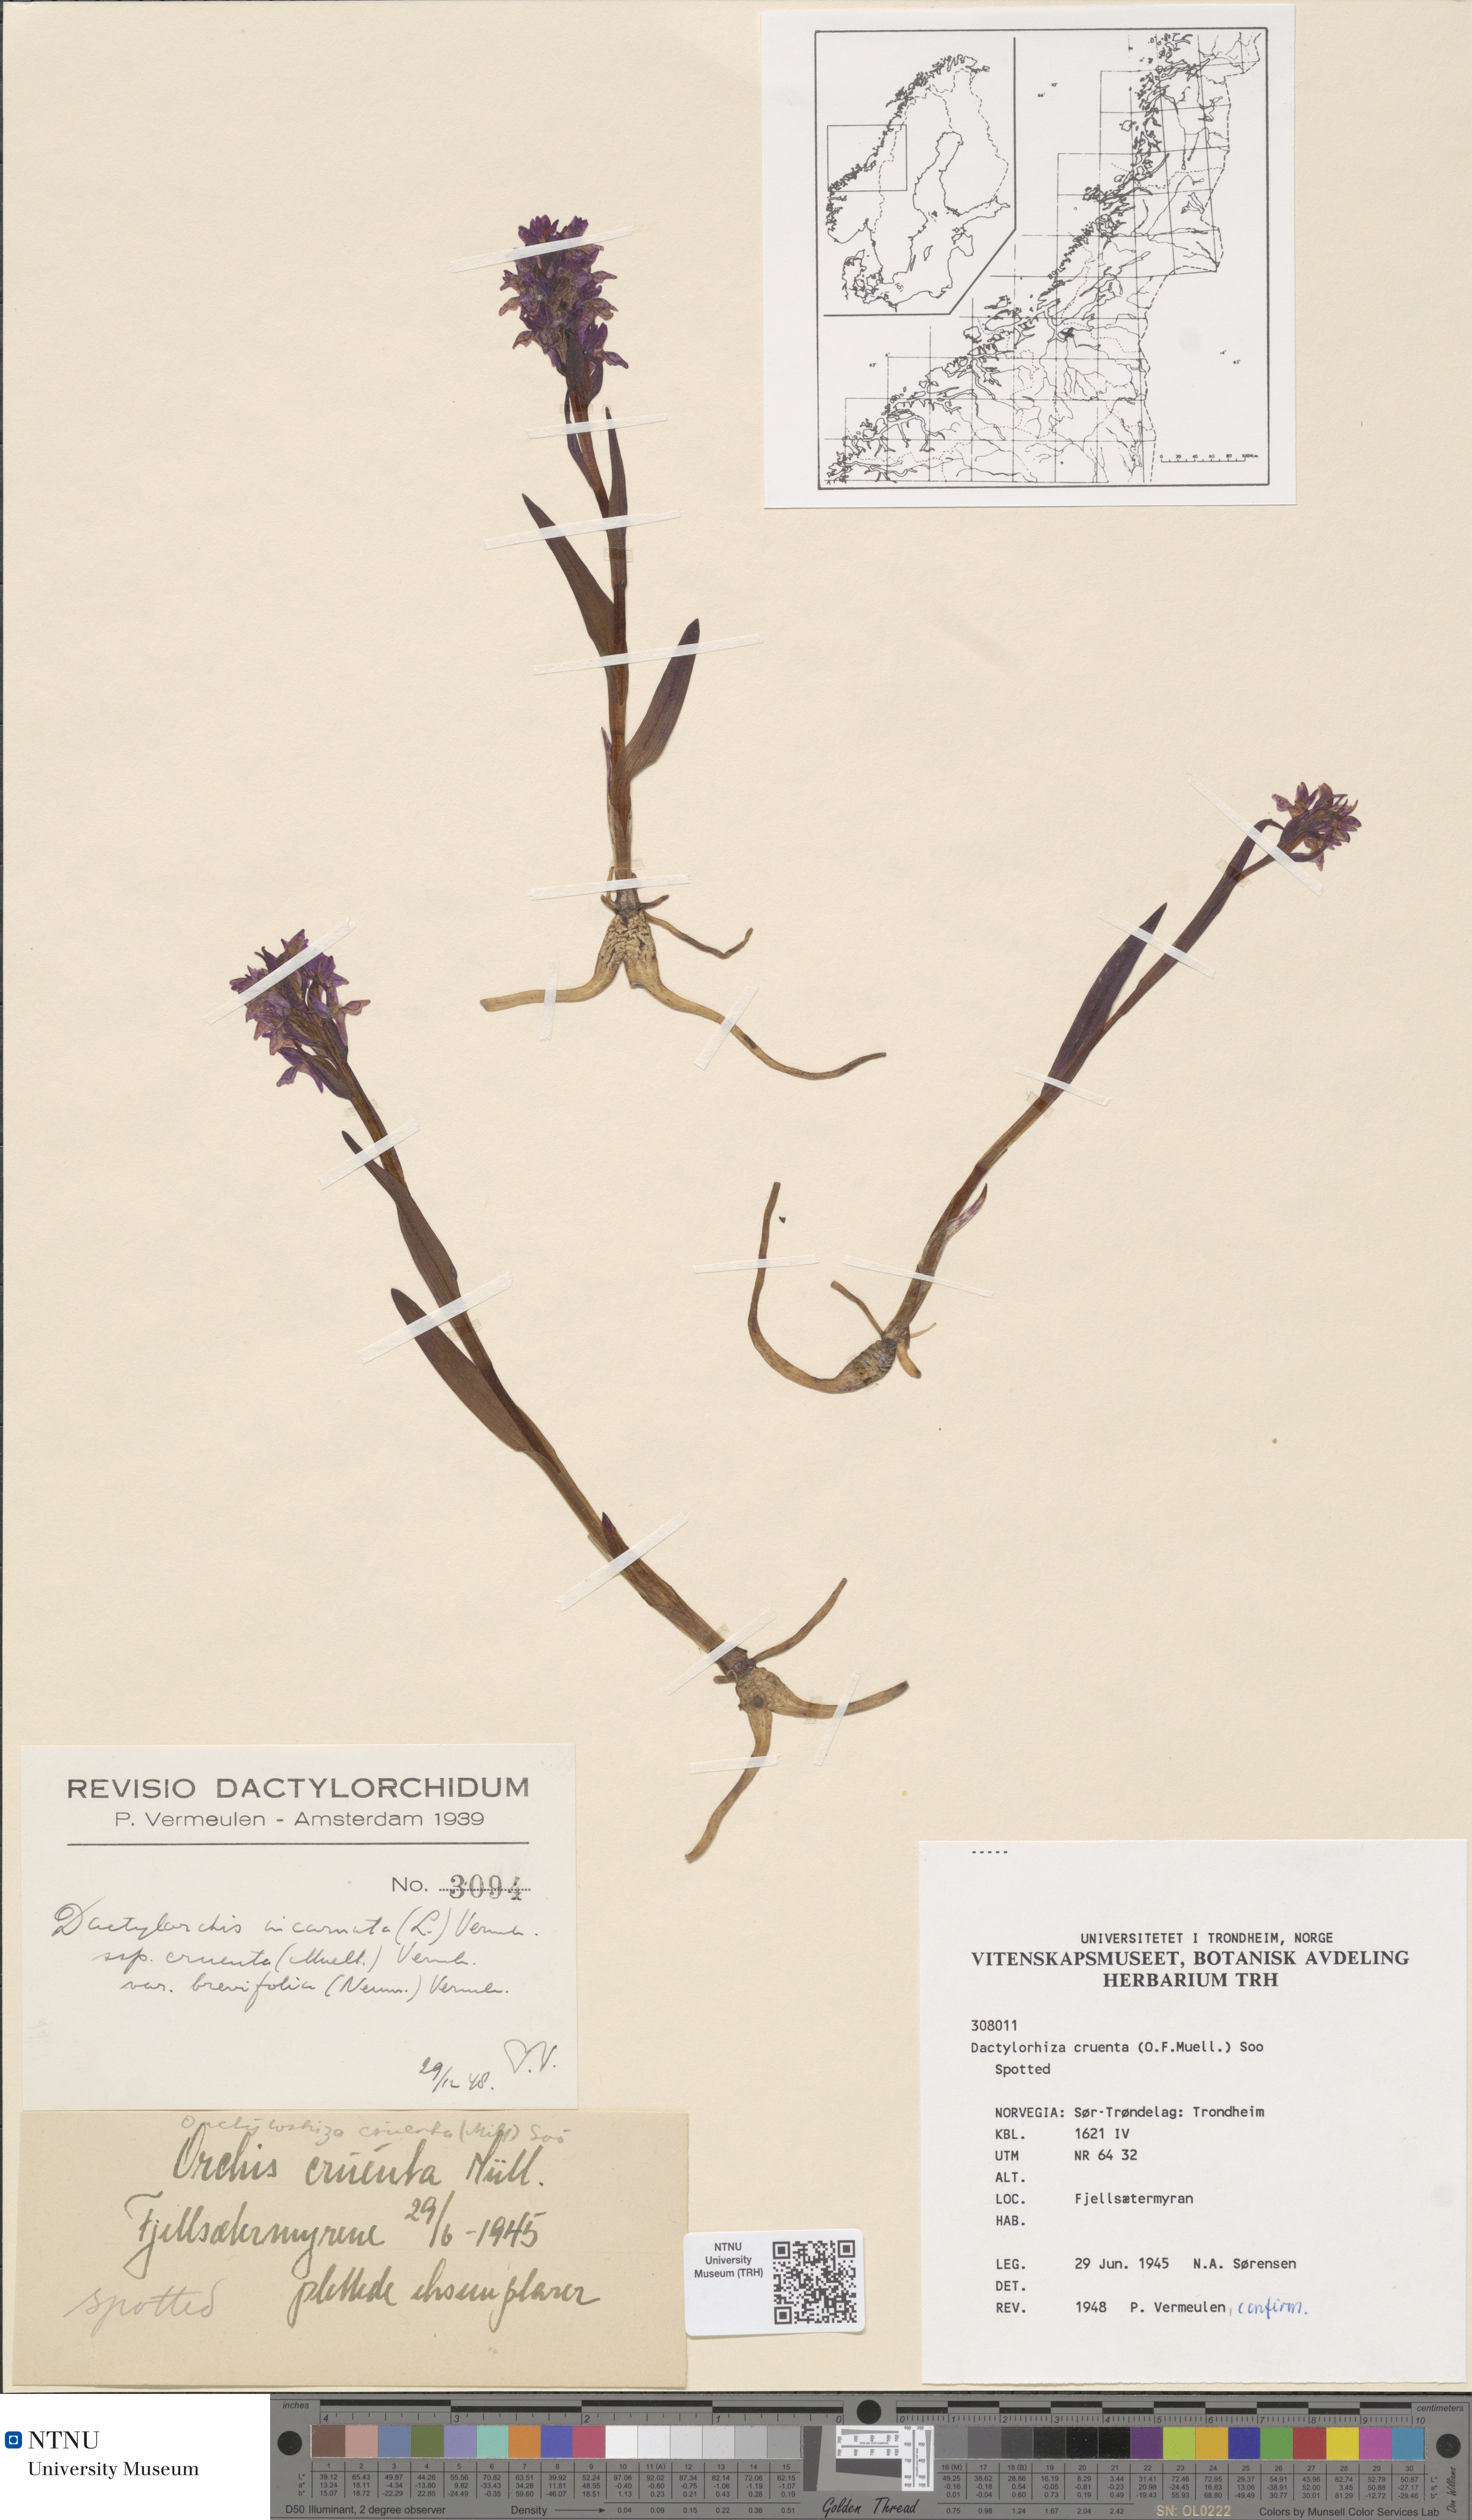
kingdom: Plantae
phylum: Tracheophyta
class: Liliopsida
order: Asparagales
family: Orchidaceae
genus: Dactylorhiza
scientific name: Dactylorhiza incarnata
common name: Early marsh-orchid
